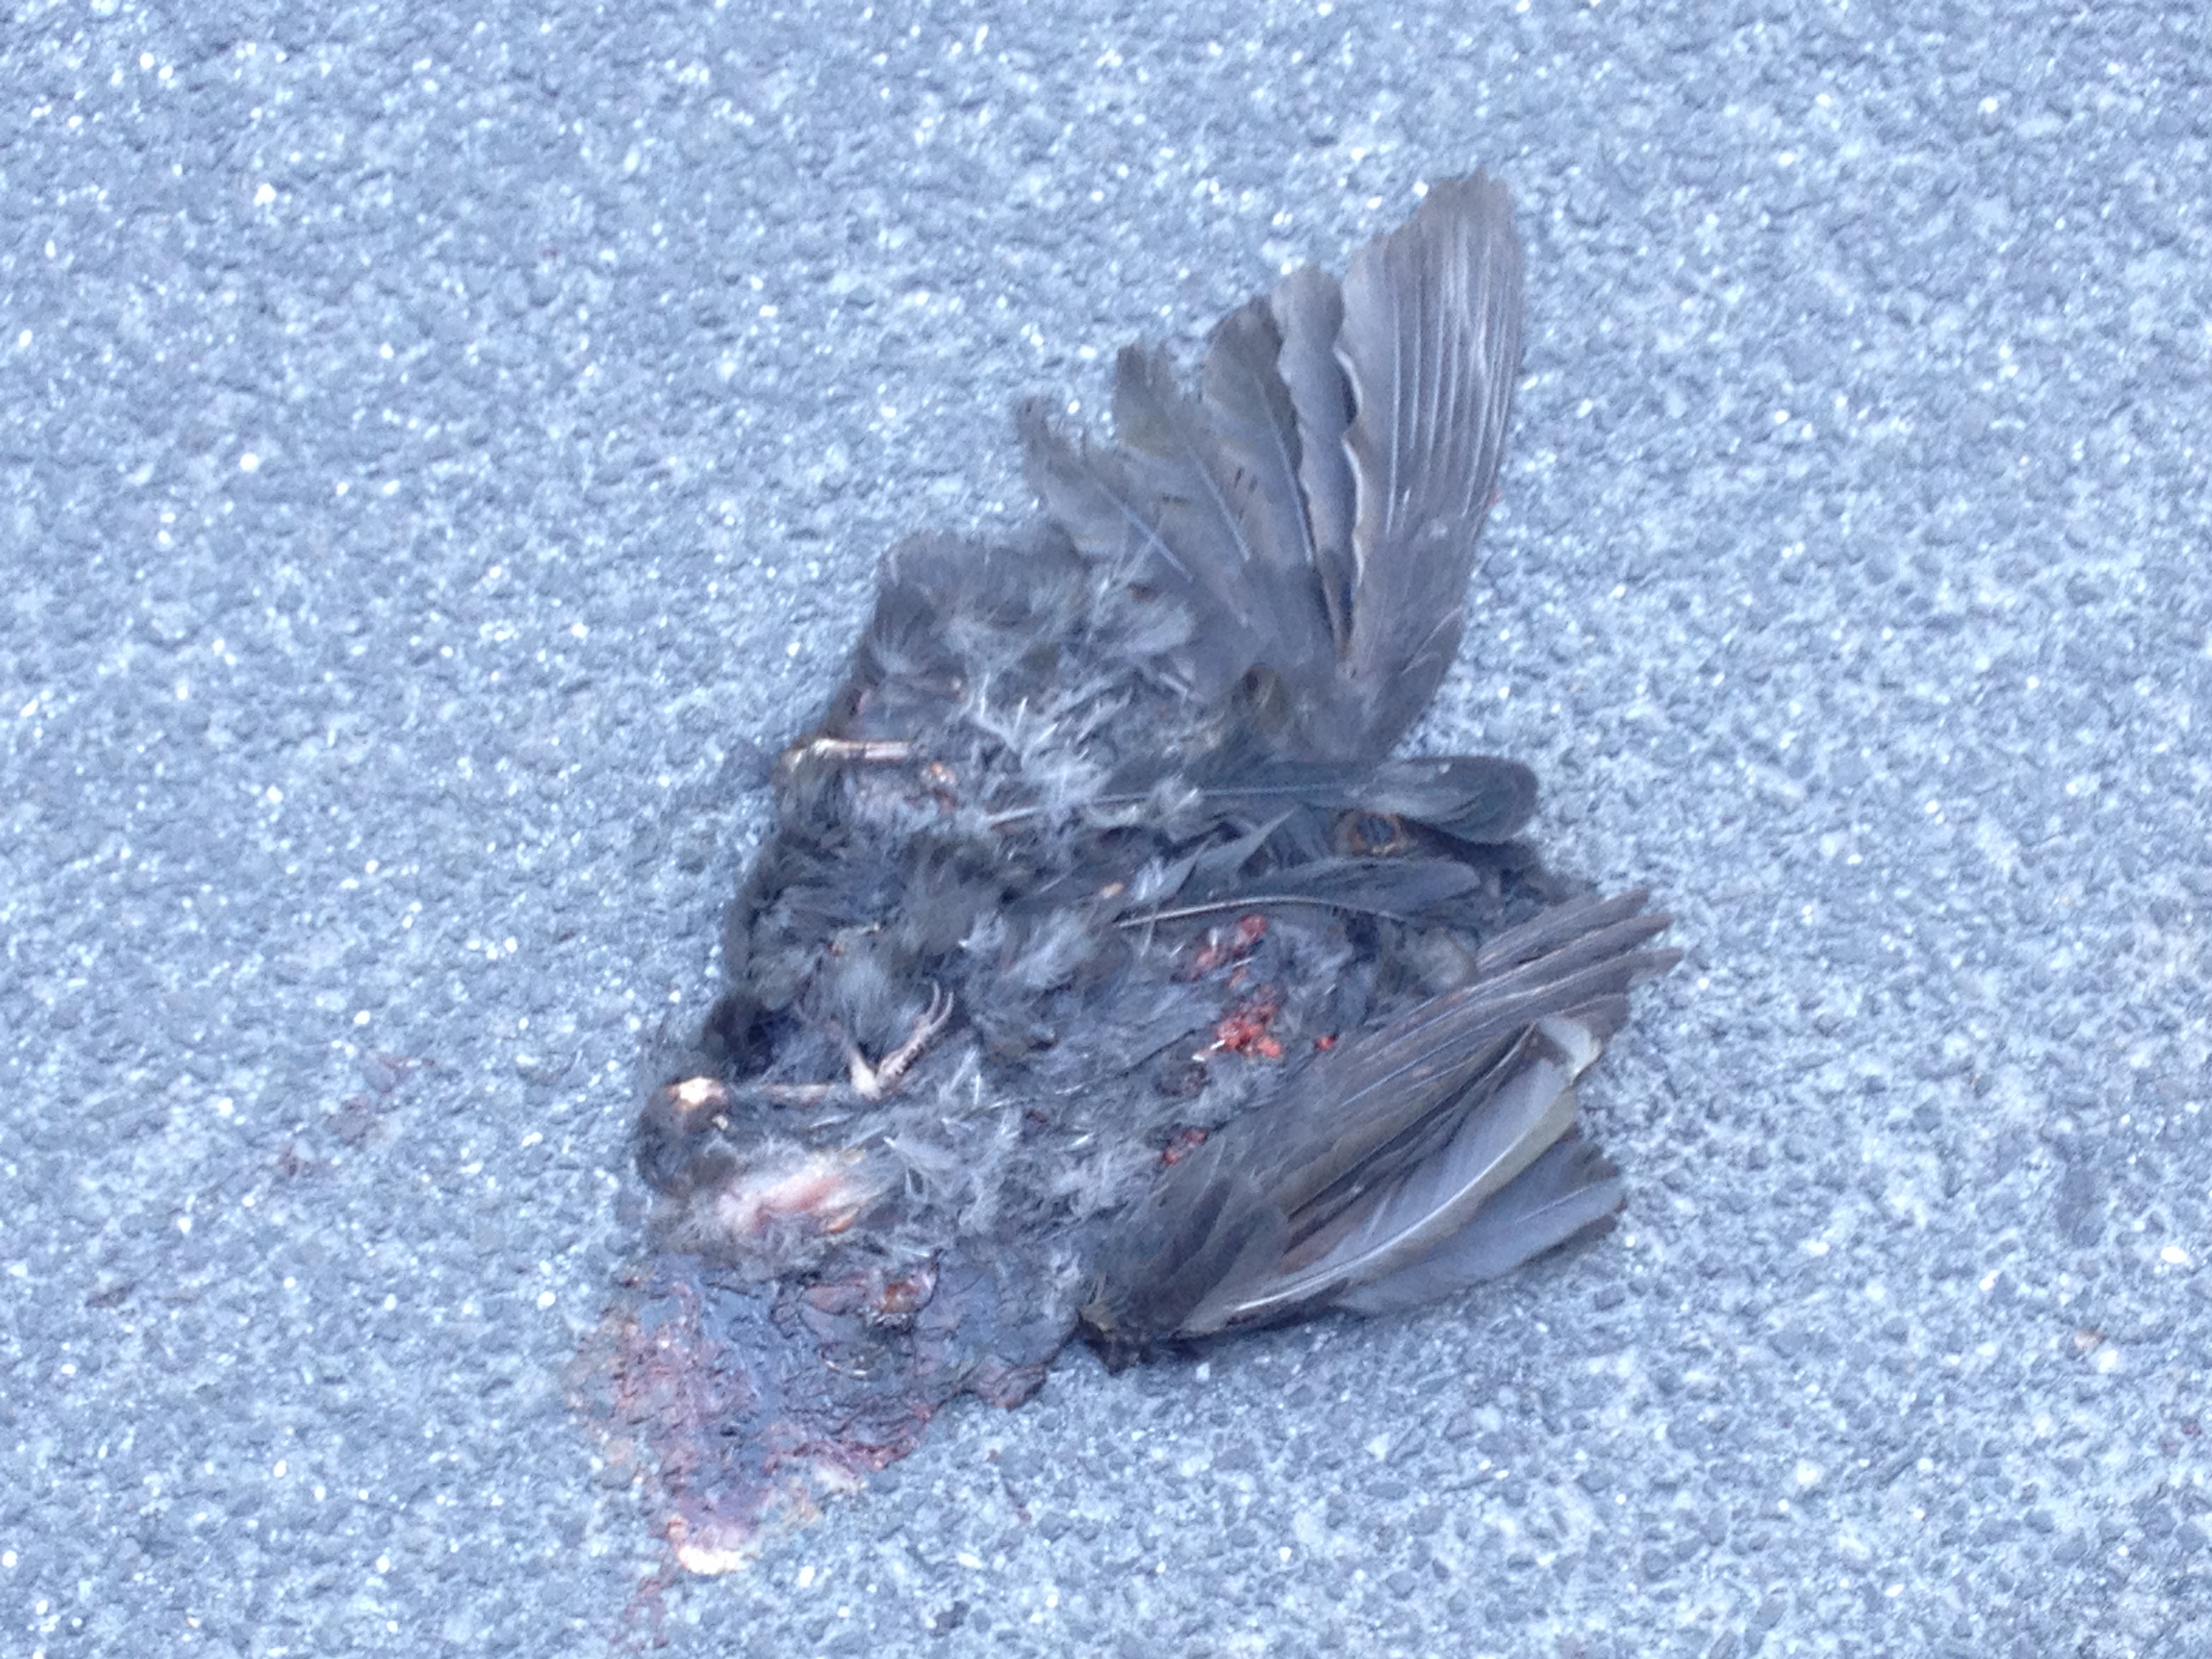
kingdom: Animalia
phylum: Chordata
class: Aves
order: Passeriformes
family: Turdidae
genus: Turdus
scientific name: Turdus merula
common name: Common blackbird
